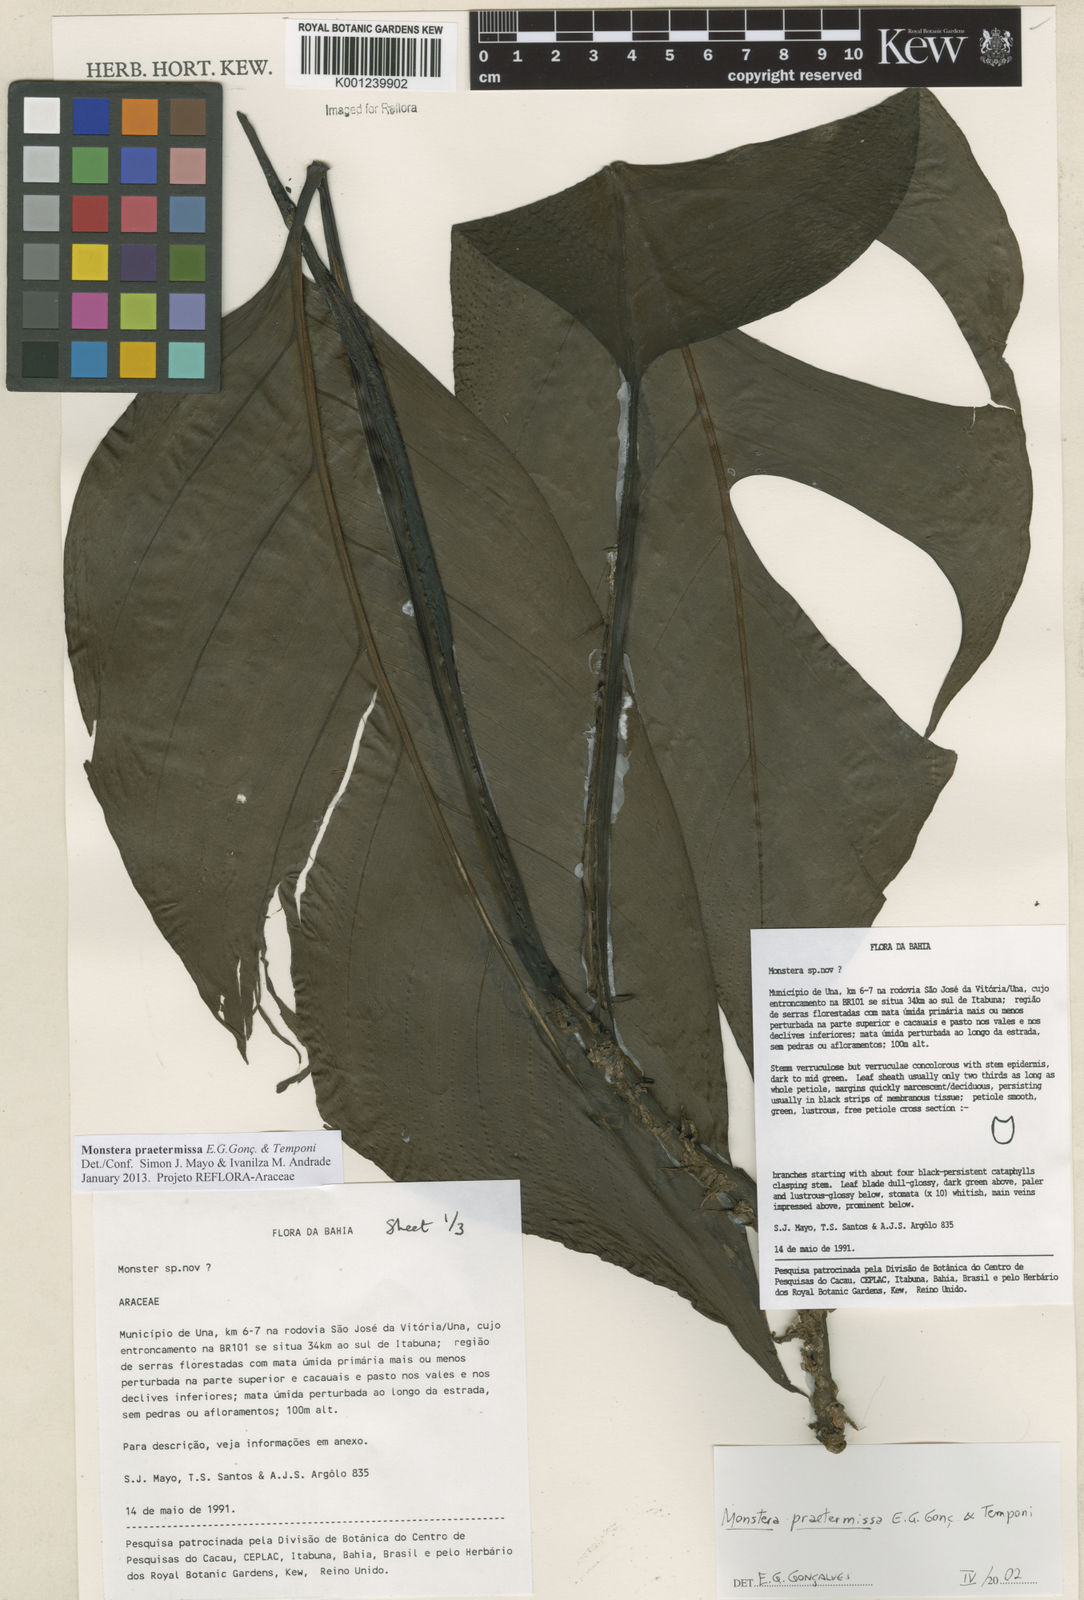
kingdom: Plantae
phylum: Tracheophyta
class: Liliopsida
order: Alismatales
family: Araceae
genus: Monstera
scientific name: Monstera praetermissa
